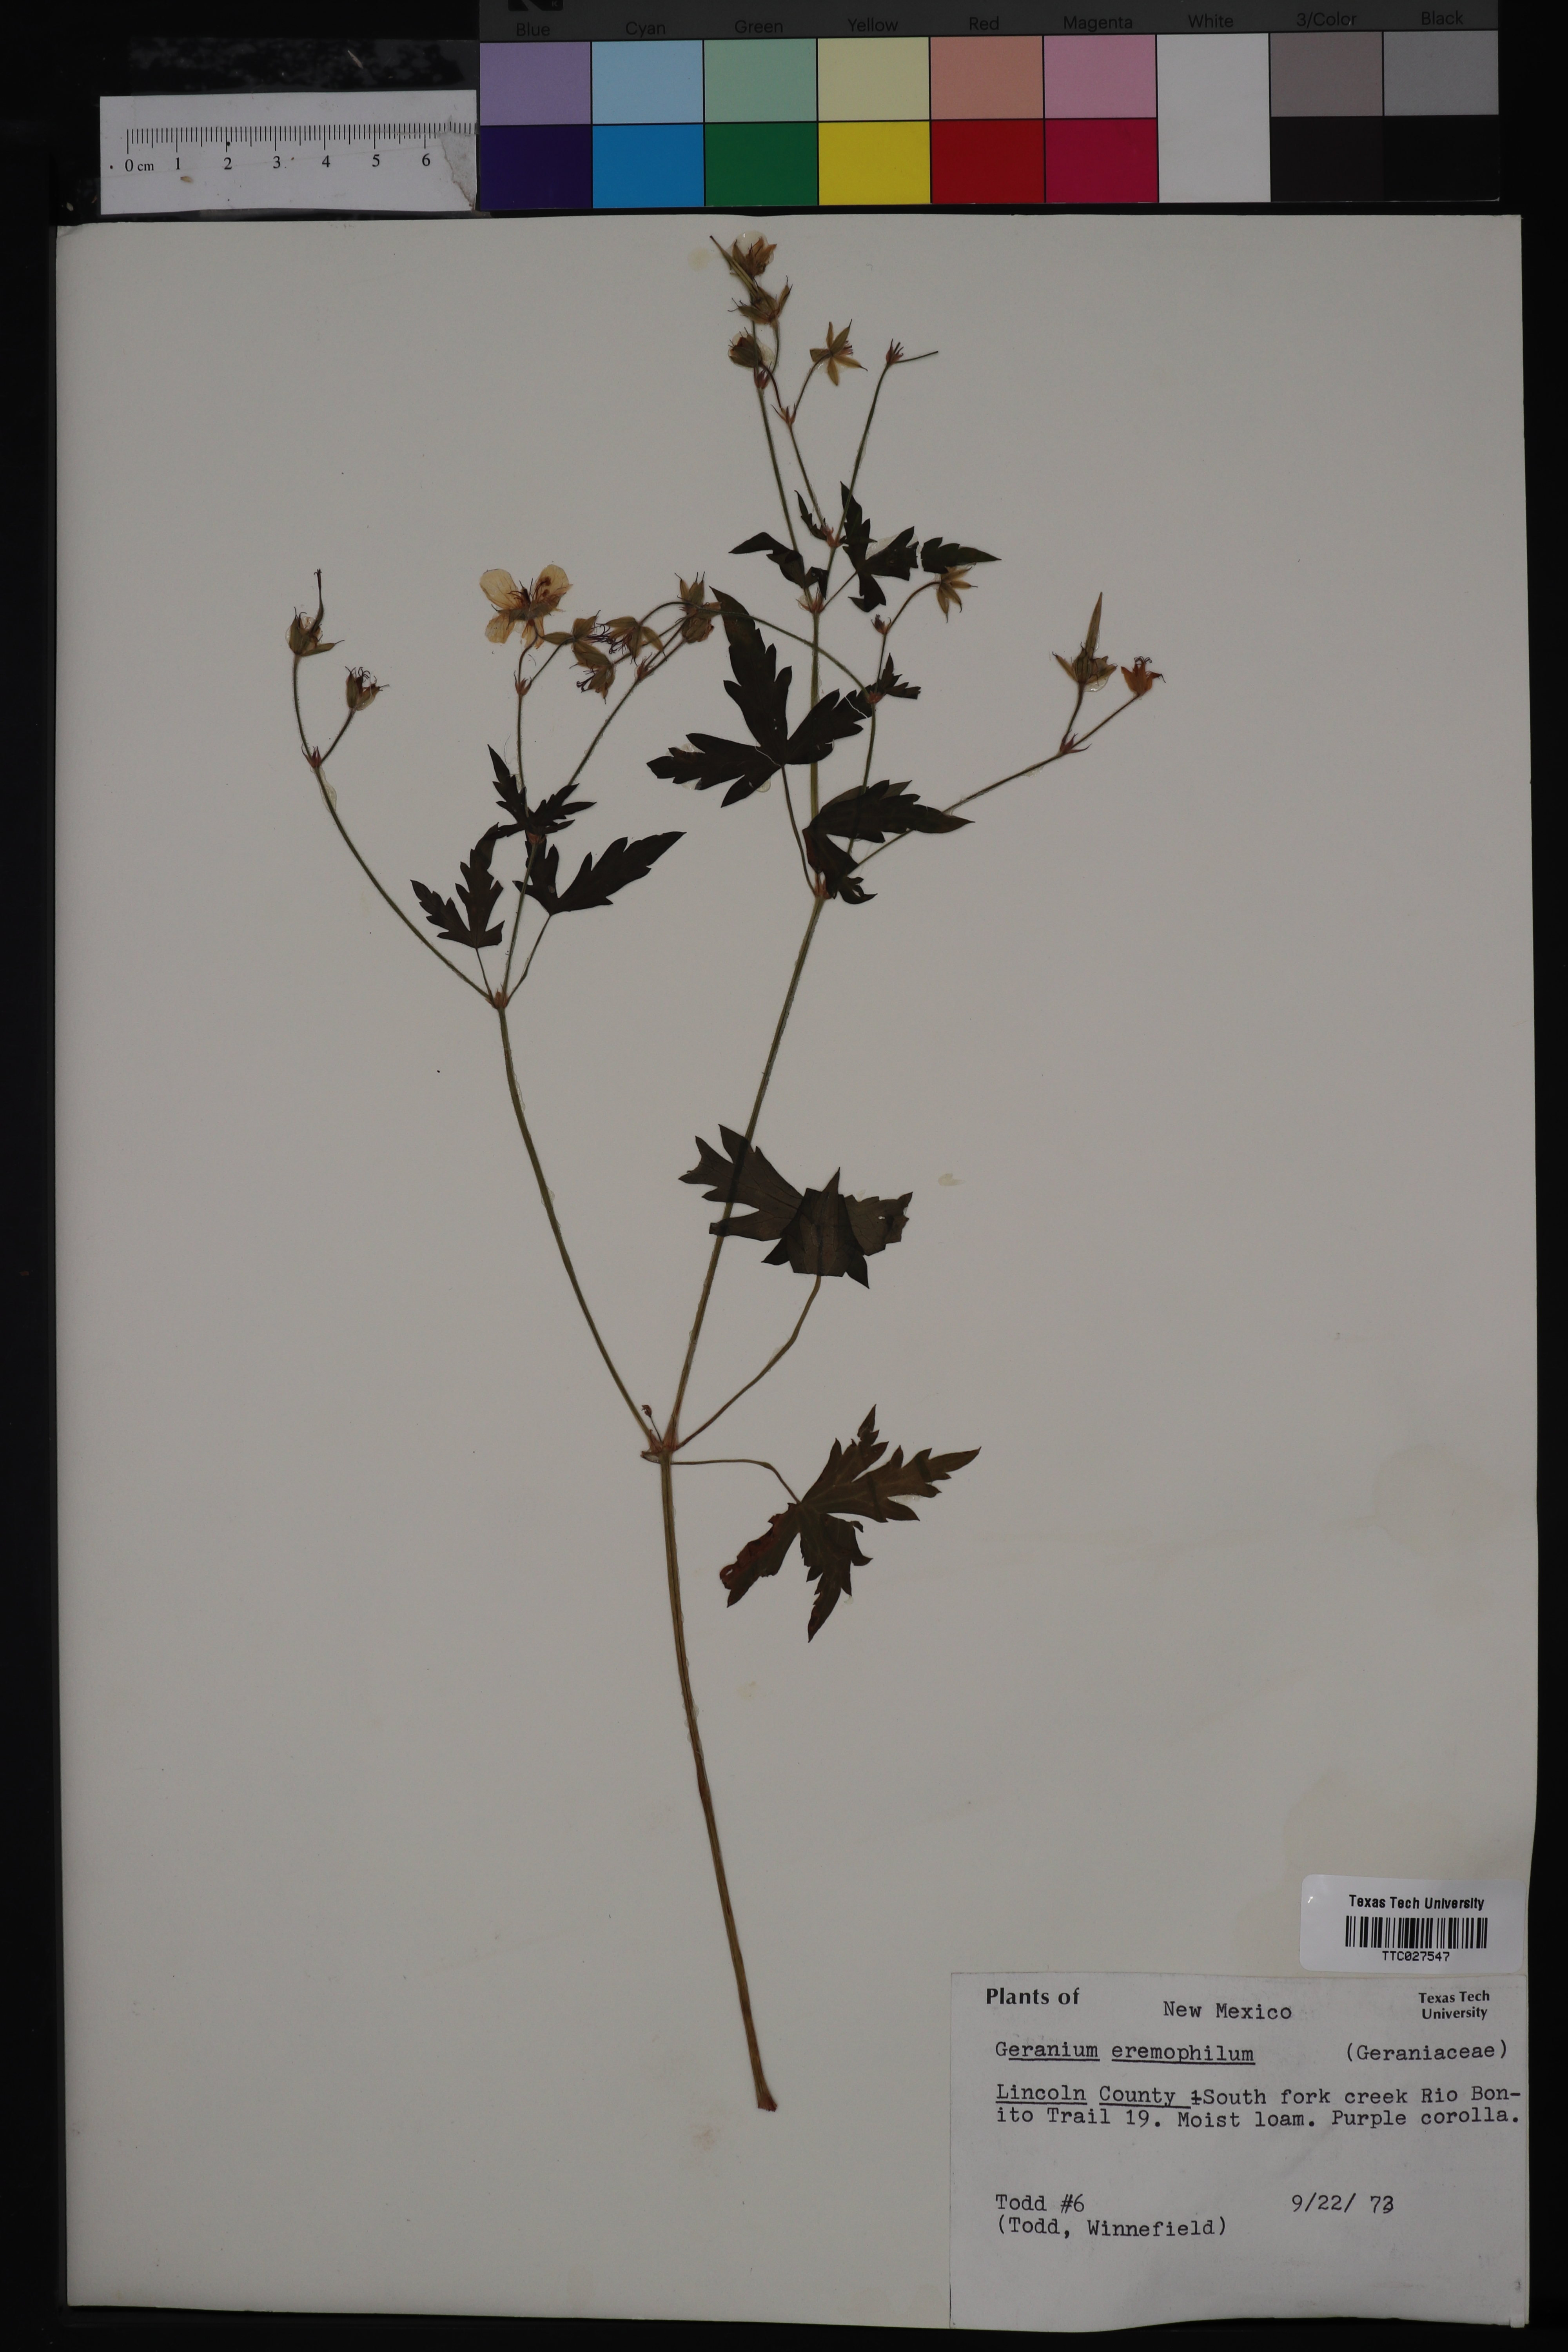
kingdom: Plantae
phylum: Tracheophyta
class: Magnoliopsida
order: Geraniales
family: Geraniaceae
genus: Geranium
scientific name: Geranium caespitosum
